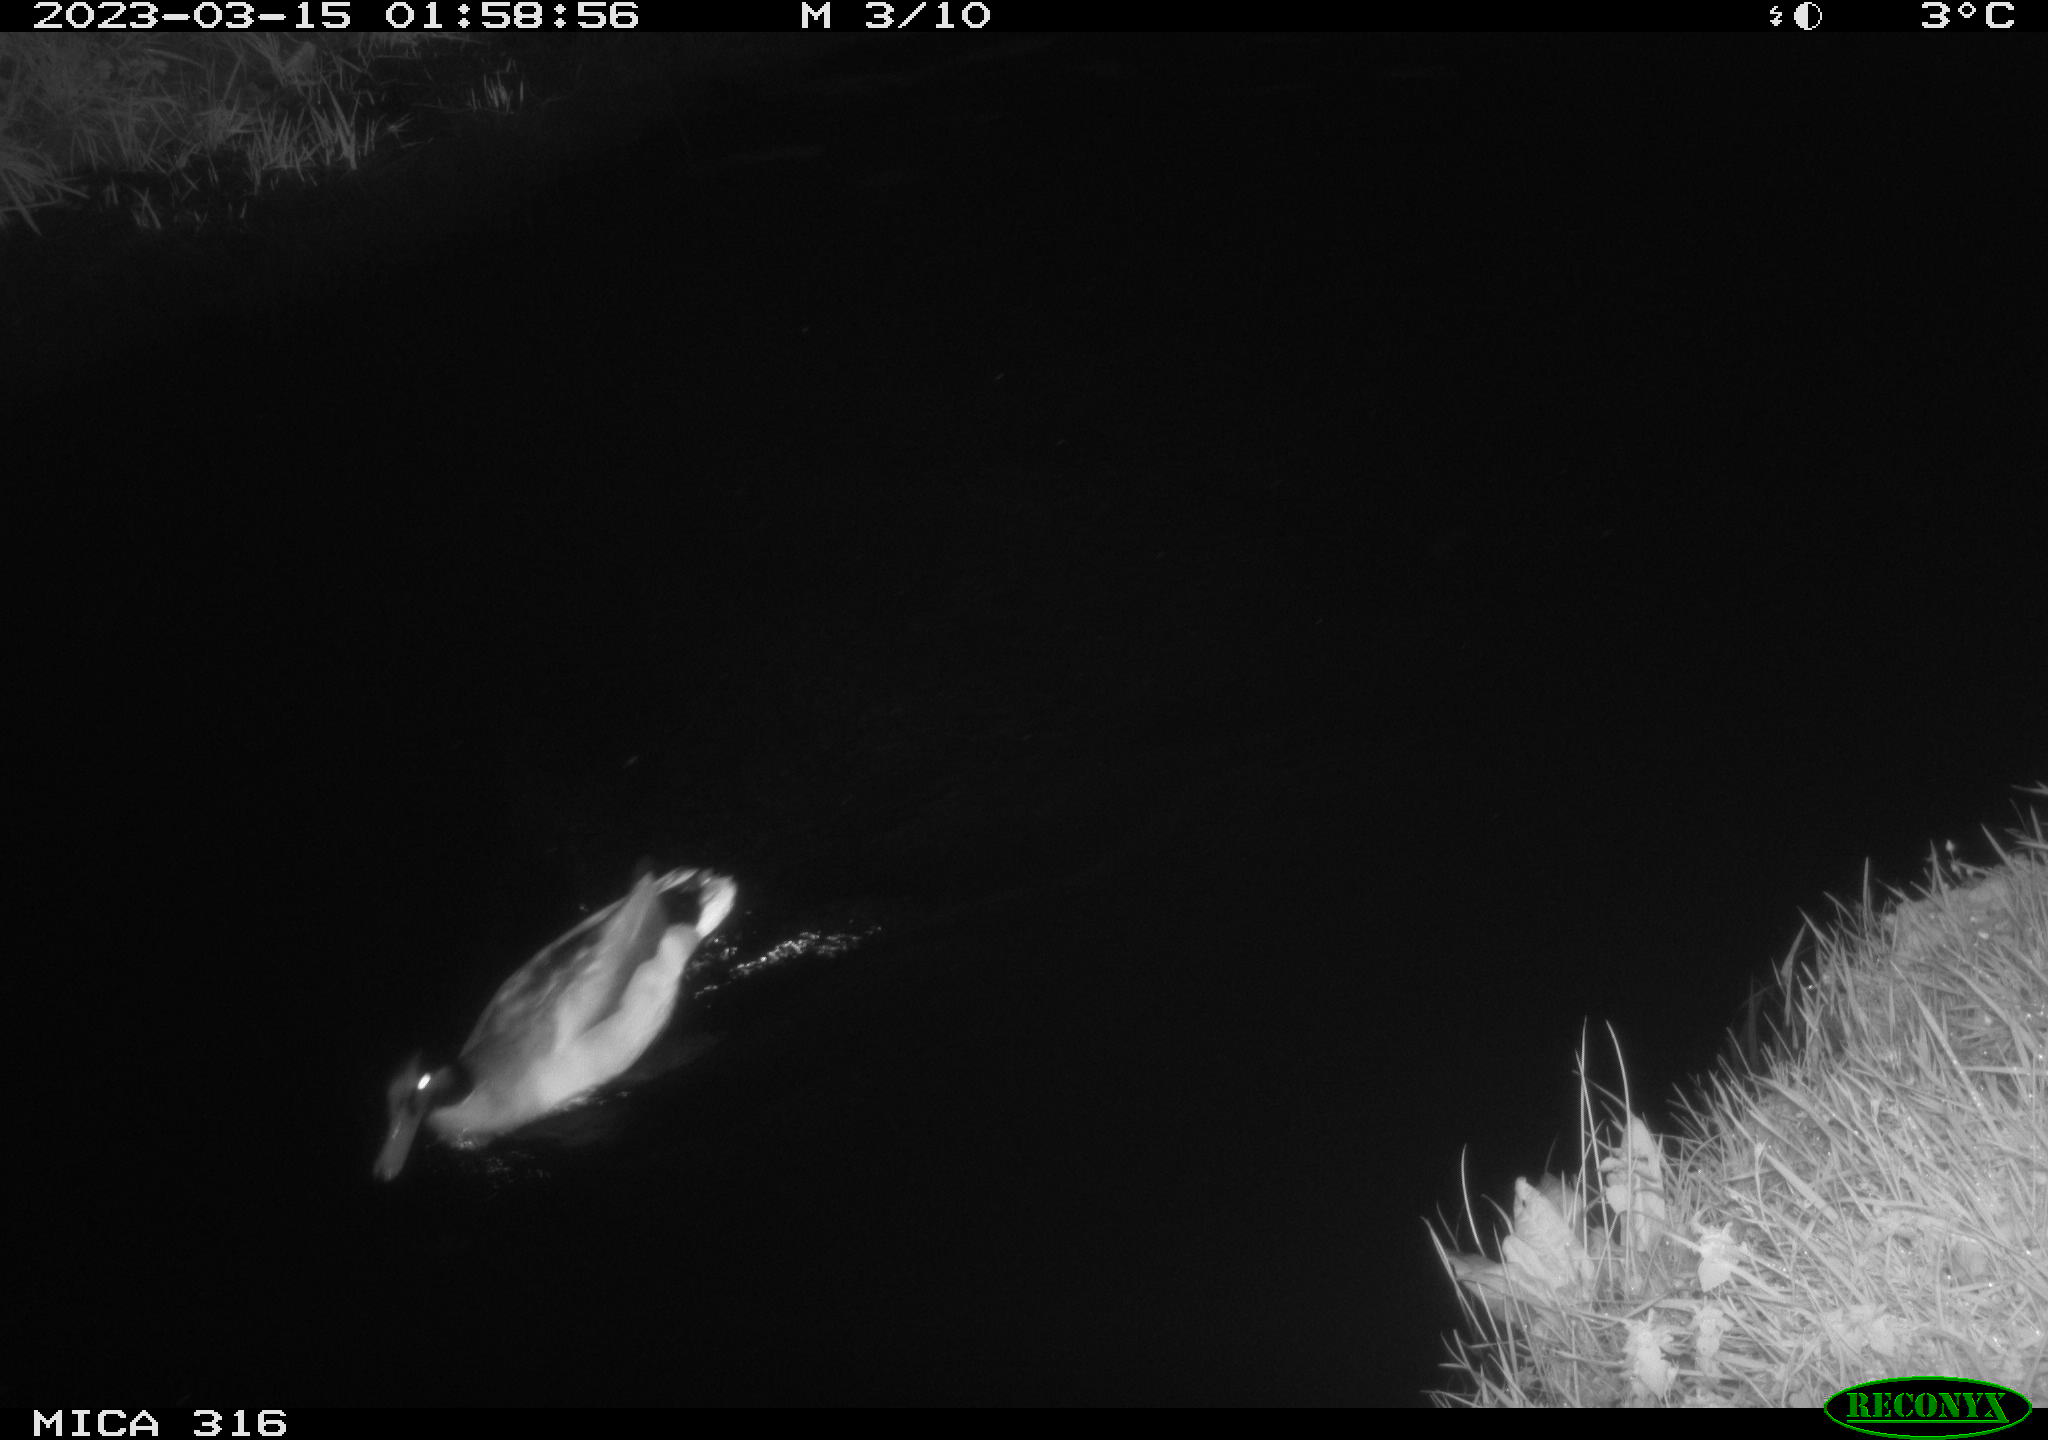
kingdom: Animalia
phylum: Chordata
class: Aves
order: Anseriformes
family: Anatidae
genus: Anas
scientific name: Anas
